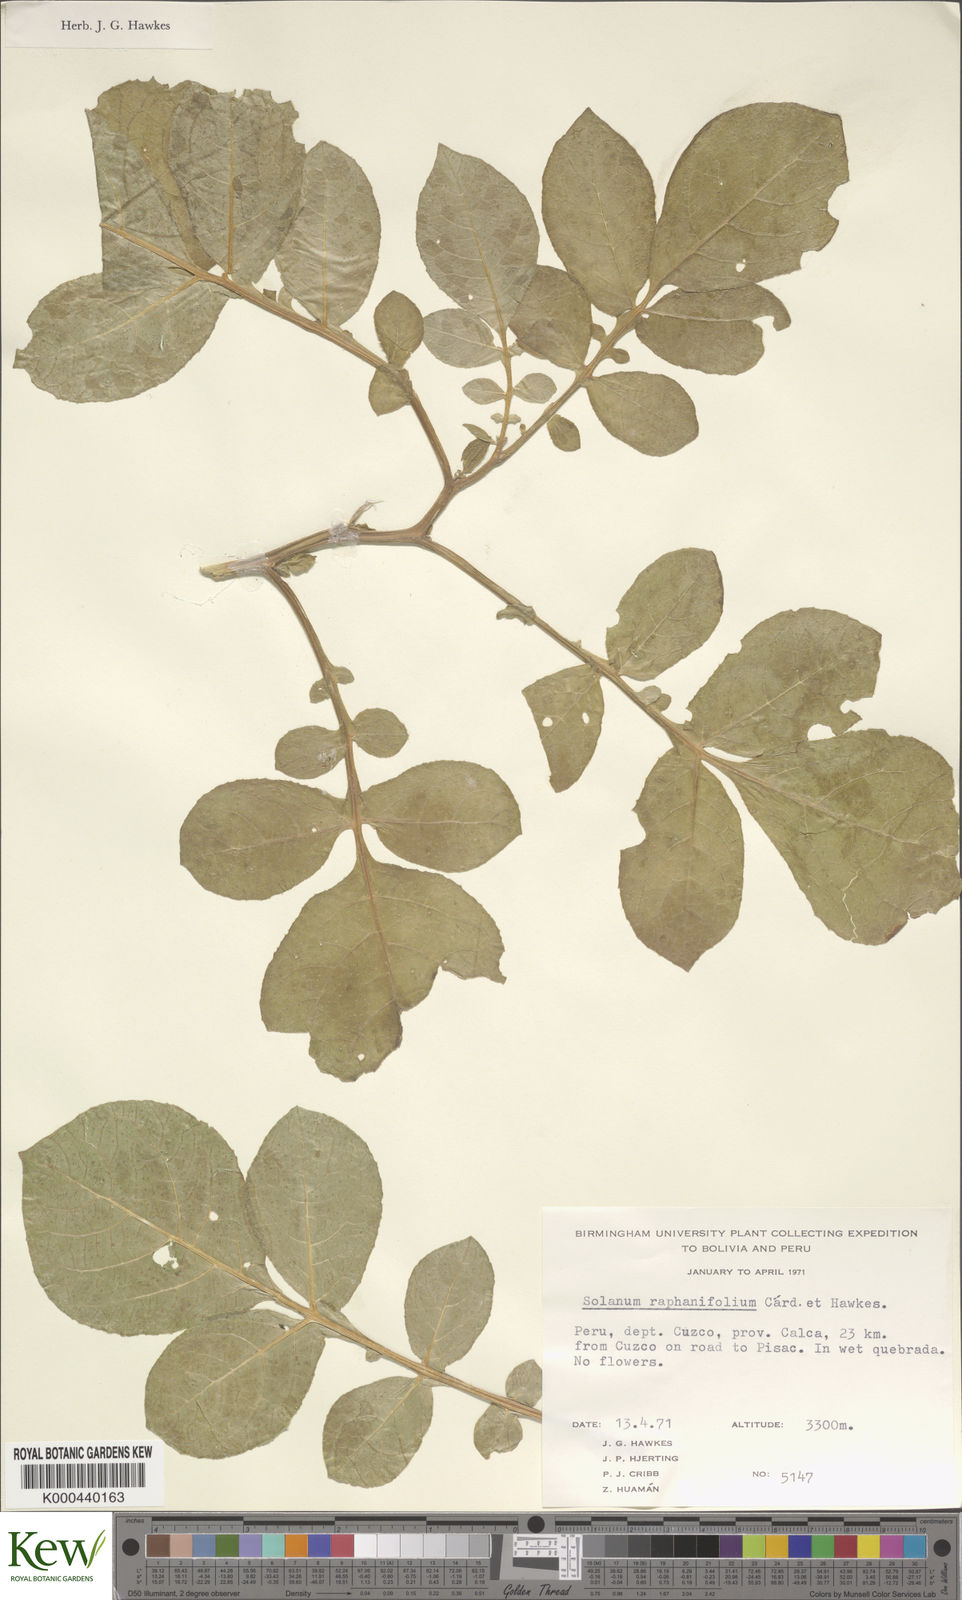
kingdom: Plantae
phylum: Tracheophyta
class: Magnoliopsida
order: Solanales
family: Solanaceae
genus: Solanum
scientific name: Solanum raphanifolium
